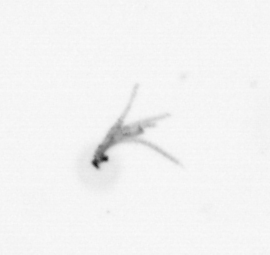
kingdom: Bacteria
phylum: Cyanobacteria
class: Cyanobacteriia
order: Cyanobacteriales
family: Microcoleaceae
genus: Trichodesmium
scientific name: Trichodesmium
